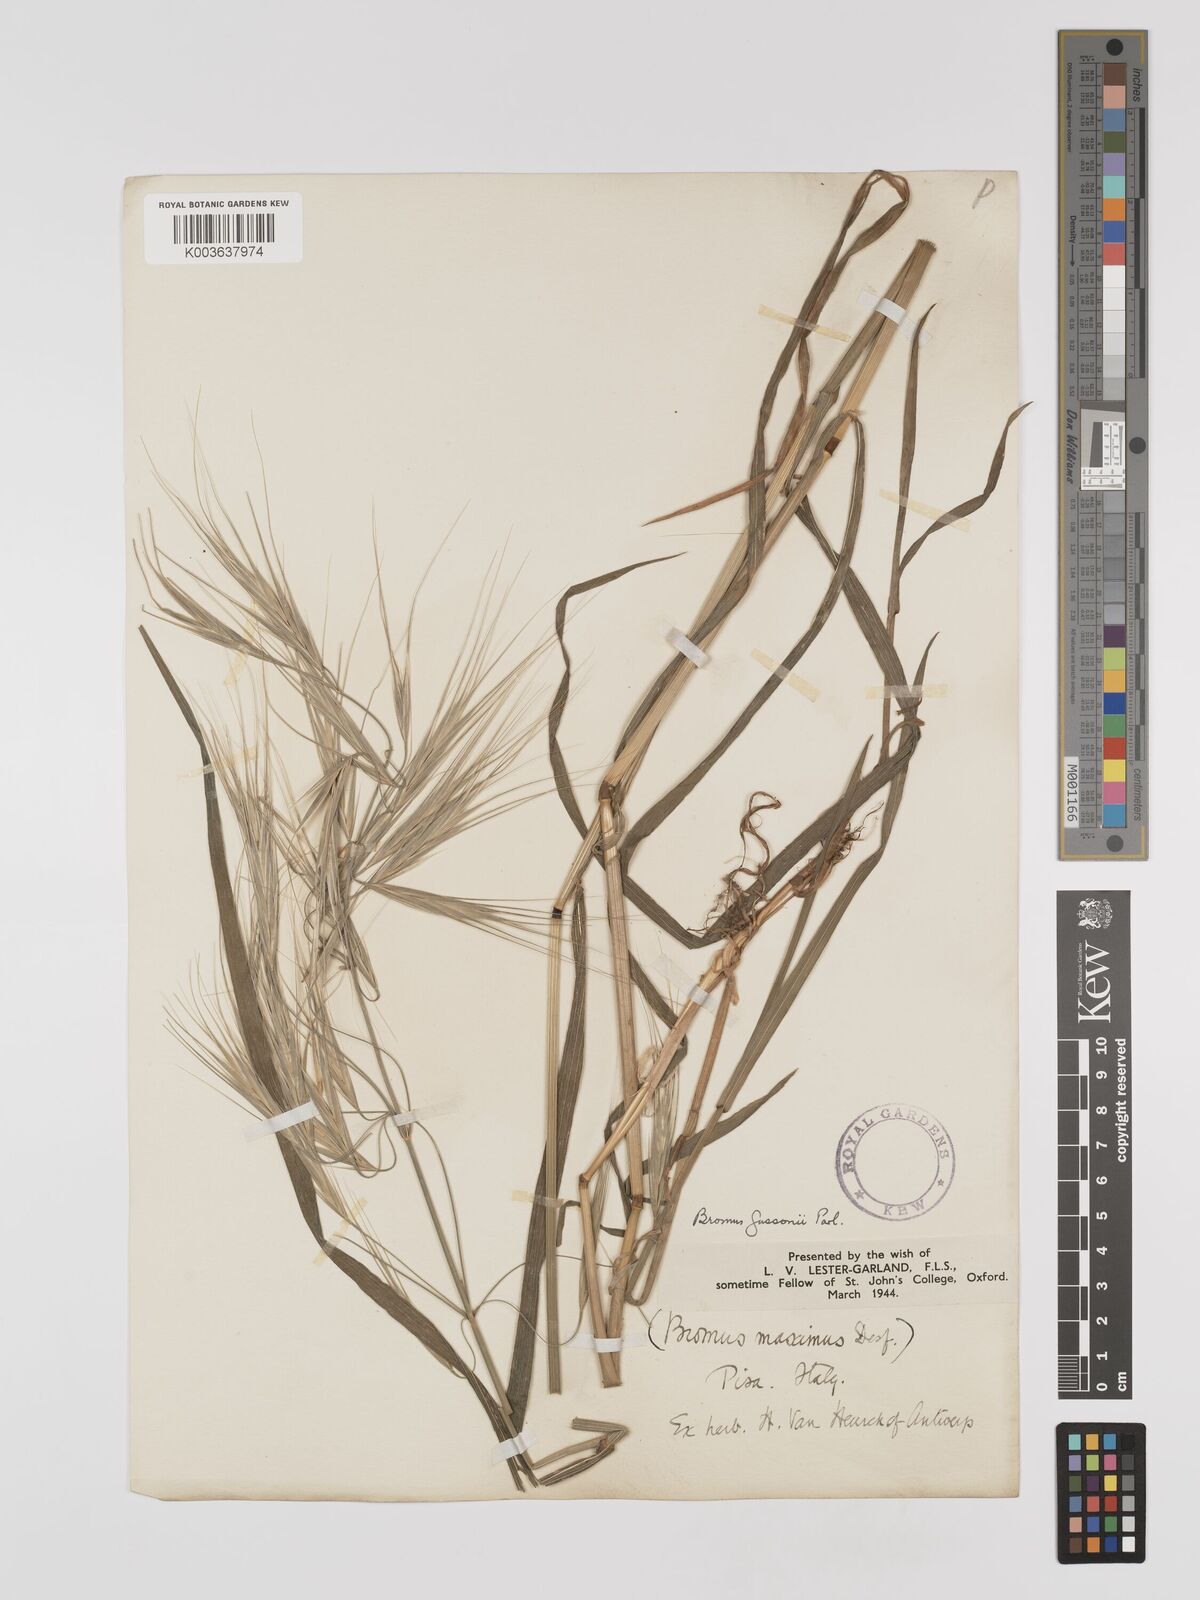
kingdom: Plantae
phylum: Tracheophyta
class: Liliopsida
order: Poales
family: Poaceae
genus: Bromus
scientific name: Bromus
